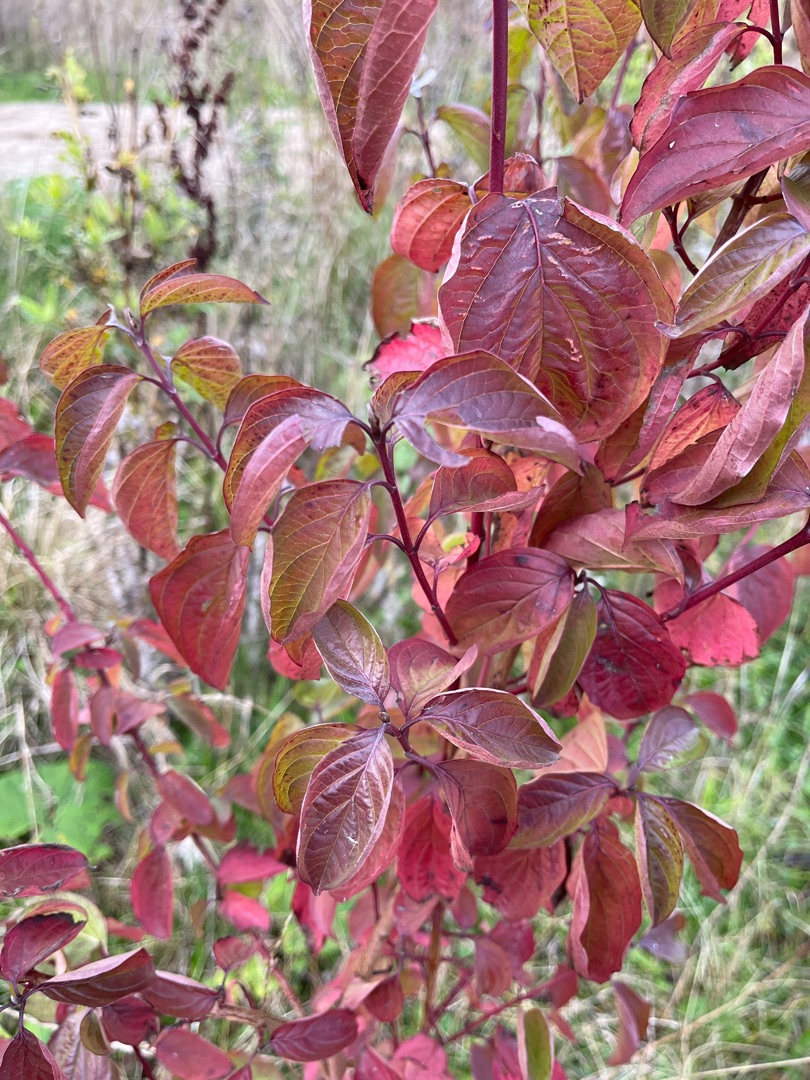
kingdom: Plantae
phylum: Tracheophyta
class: Magnoliopsida
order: Cornales
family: Cornaceae
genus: Cornus
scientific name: Cornus sanguinea
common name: Rød kornel
